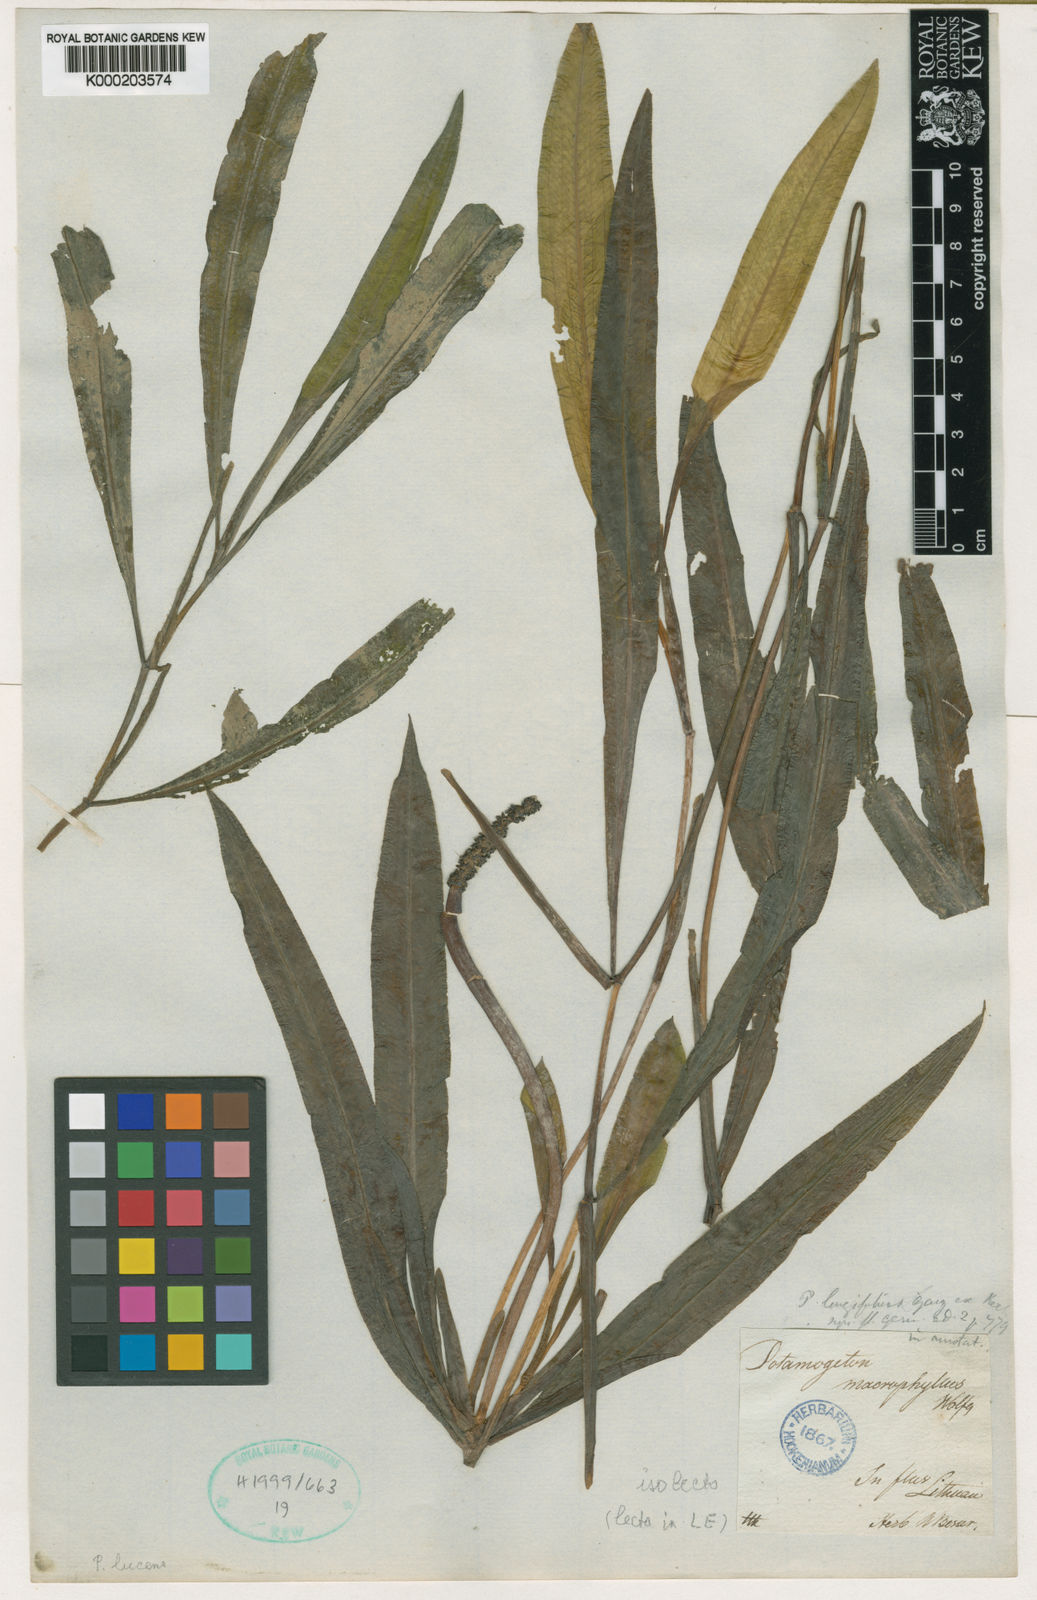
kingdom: Plantae
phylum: Tracheophyta
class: Liliopsida
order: Alismatales
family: Potamogetonaceae
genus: Potamogeton
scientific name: Potamogeton lucens
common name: Shining pondweed
